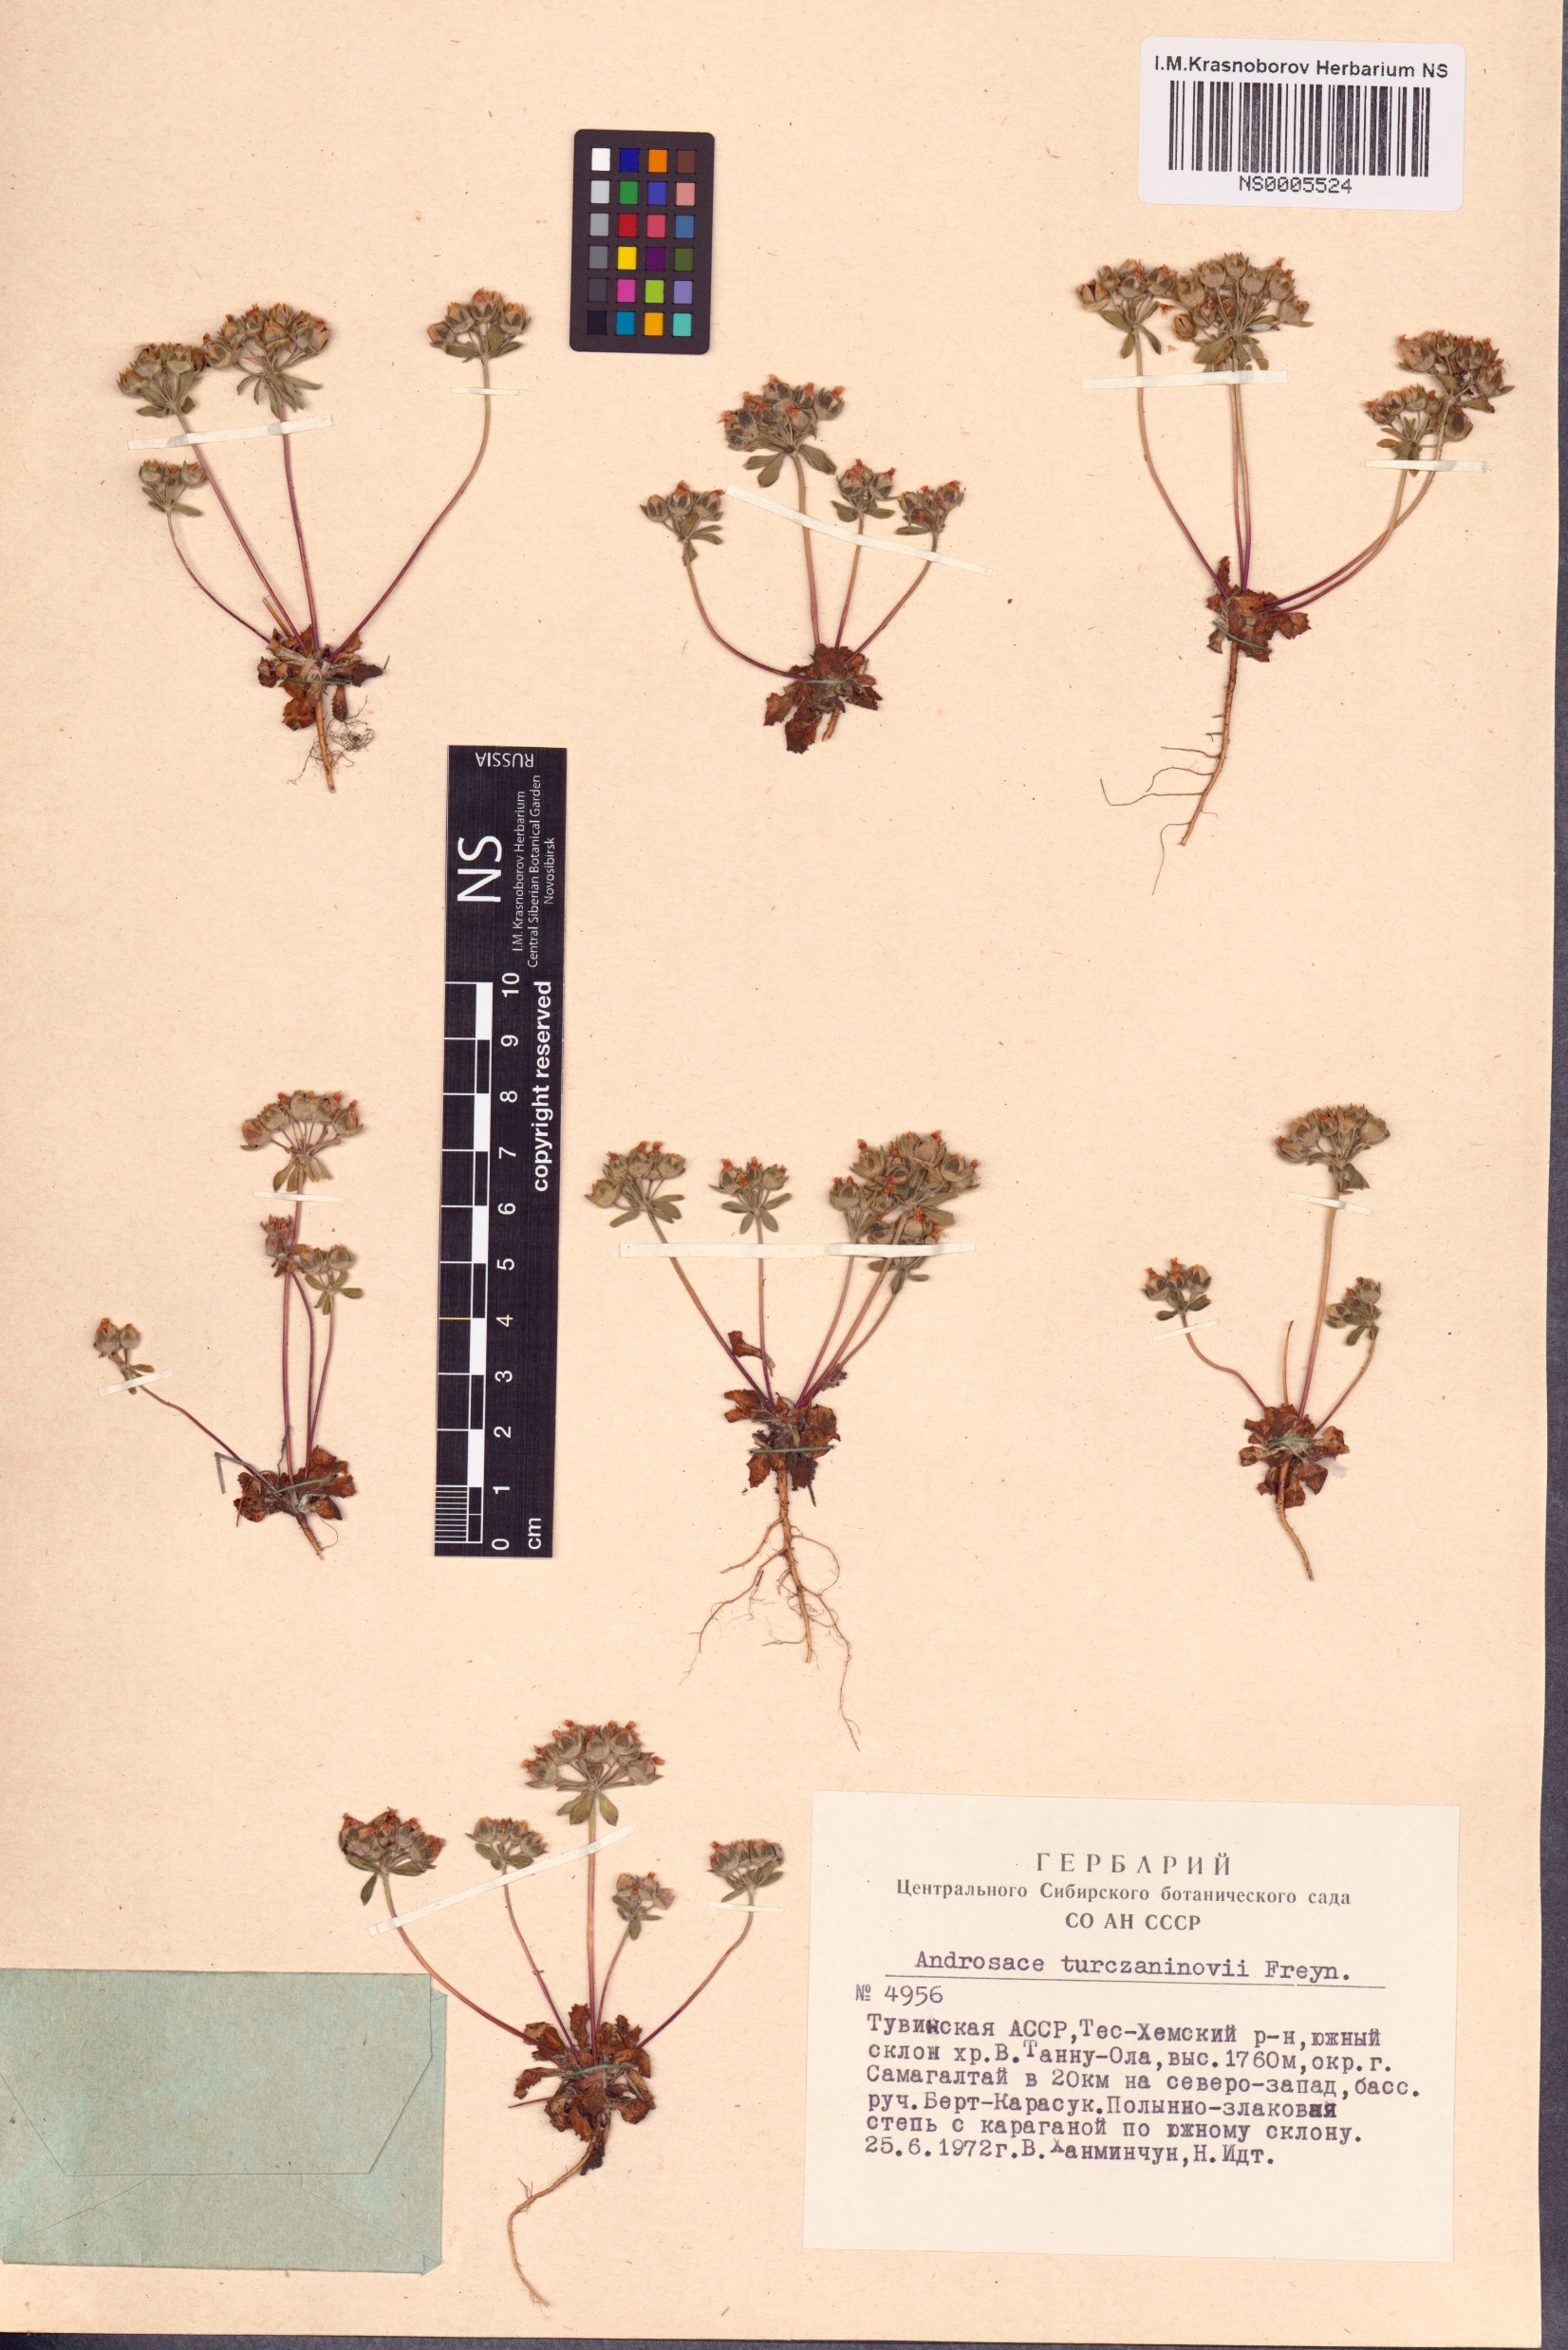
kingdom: Plantae
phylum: Tracheophyta
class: Magnoliopsida
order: Ericales
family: Primulaceae
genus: Androsace
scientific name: Androsace maxima
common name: Annual androsace
